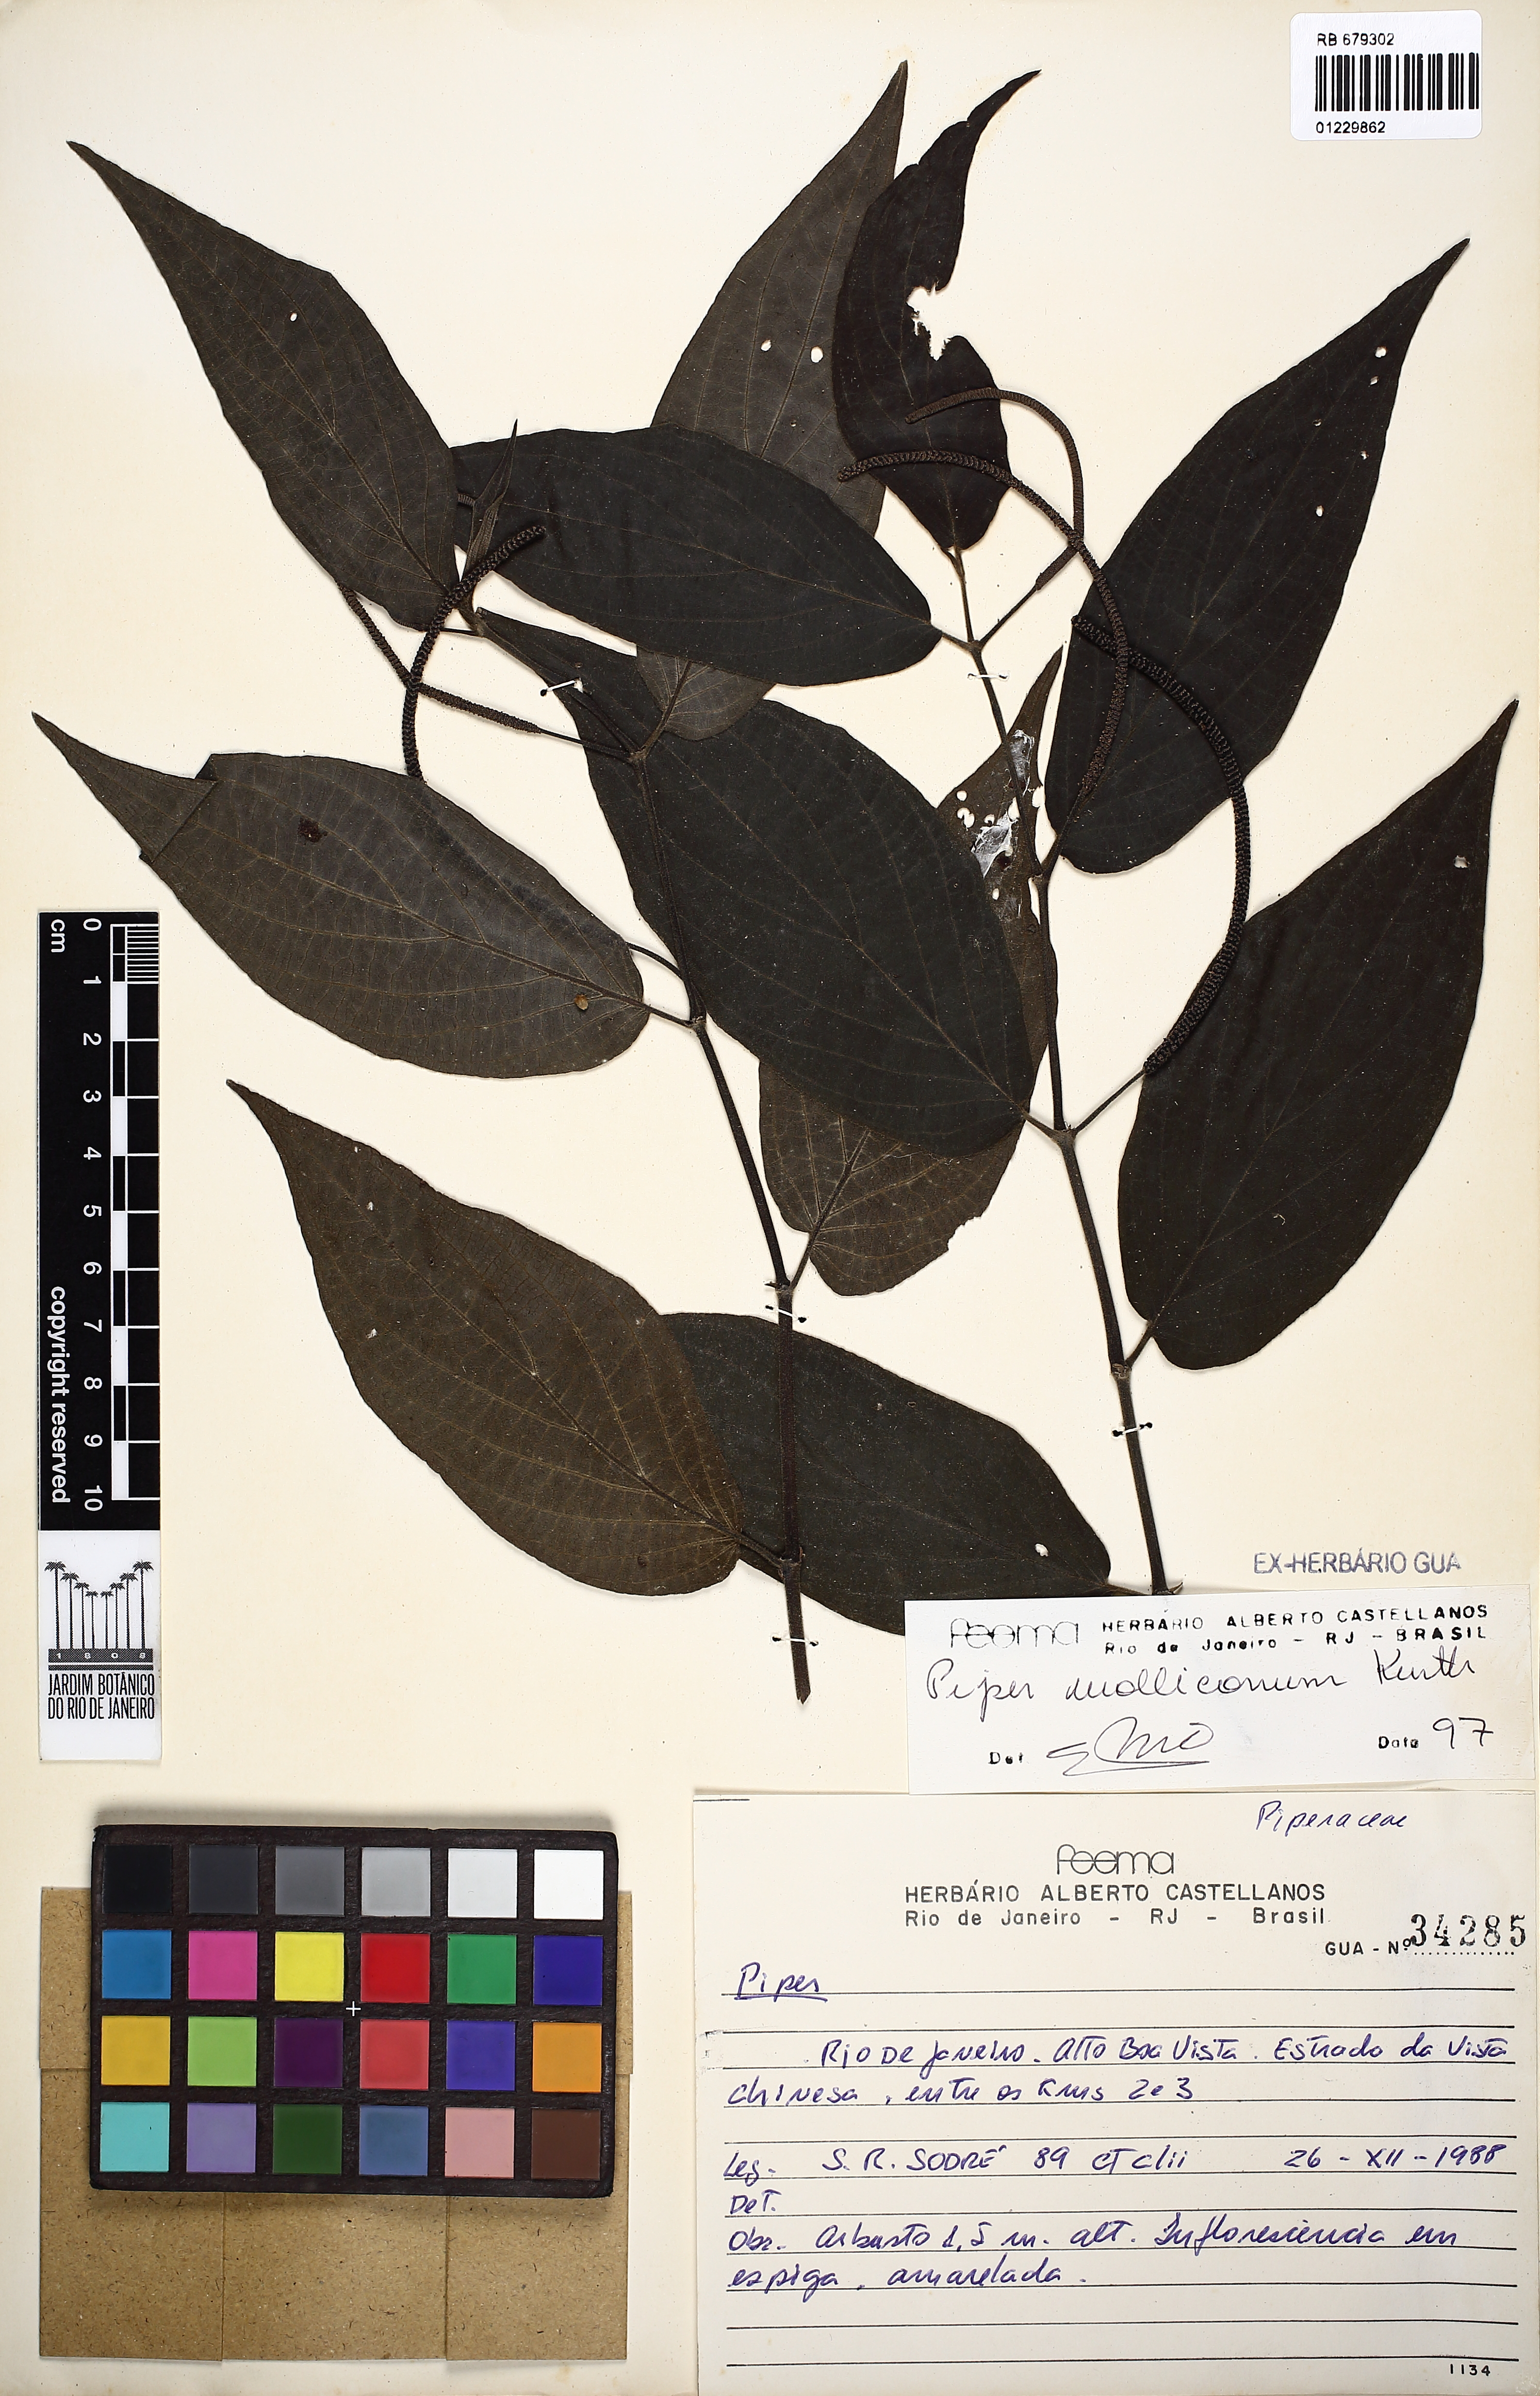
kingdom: Plantae
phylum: Tracheophyta
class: Magnoliopsida
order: Piperales
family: Piperaceae
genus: Piper
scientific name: Piper mollicomum
